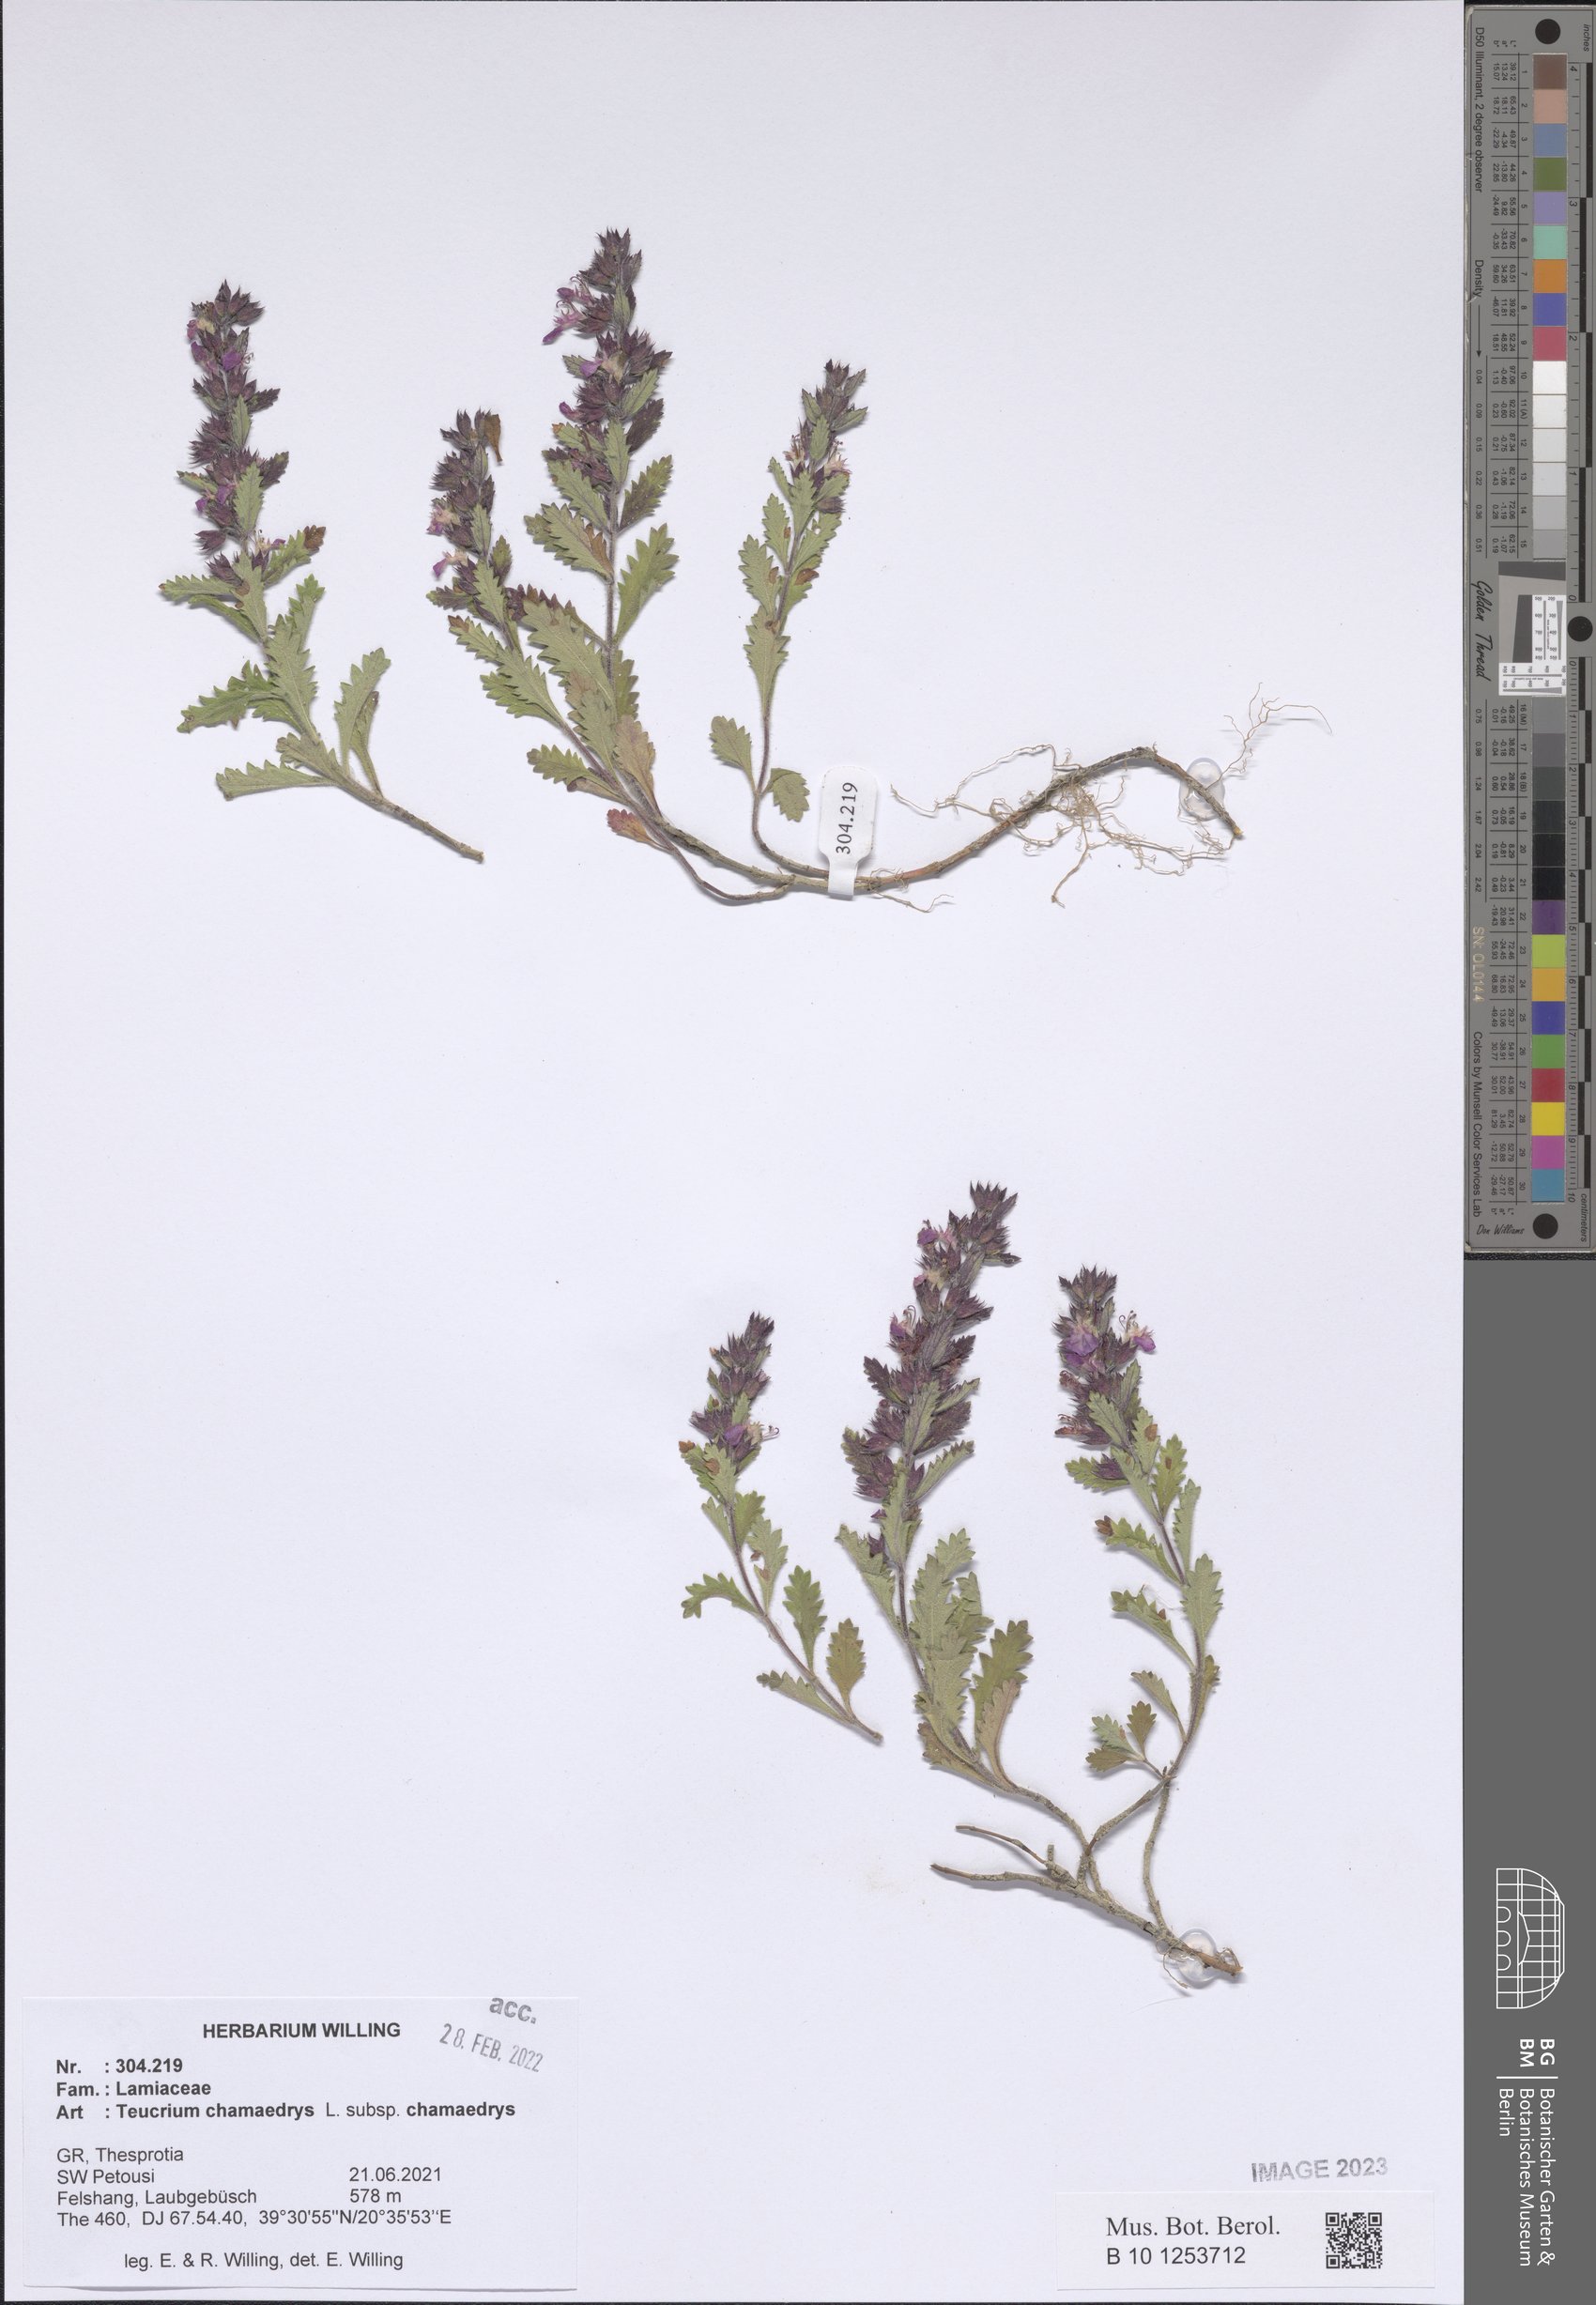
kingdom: Plantae
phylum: Tracheophyta
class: Magnoliopsida
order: Lamiales
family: Lamiaceae
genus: Teucrium
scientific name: Teucrium chamaedrys
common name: Wall germander
